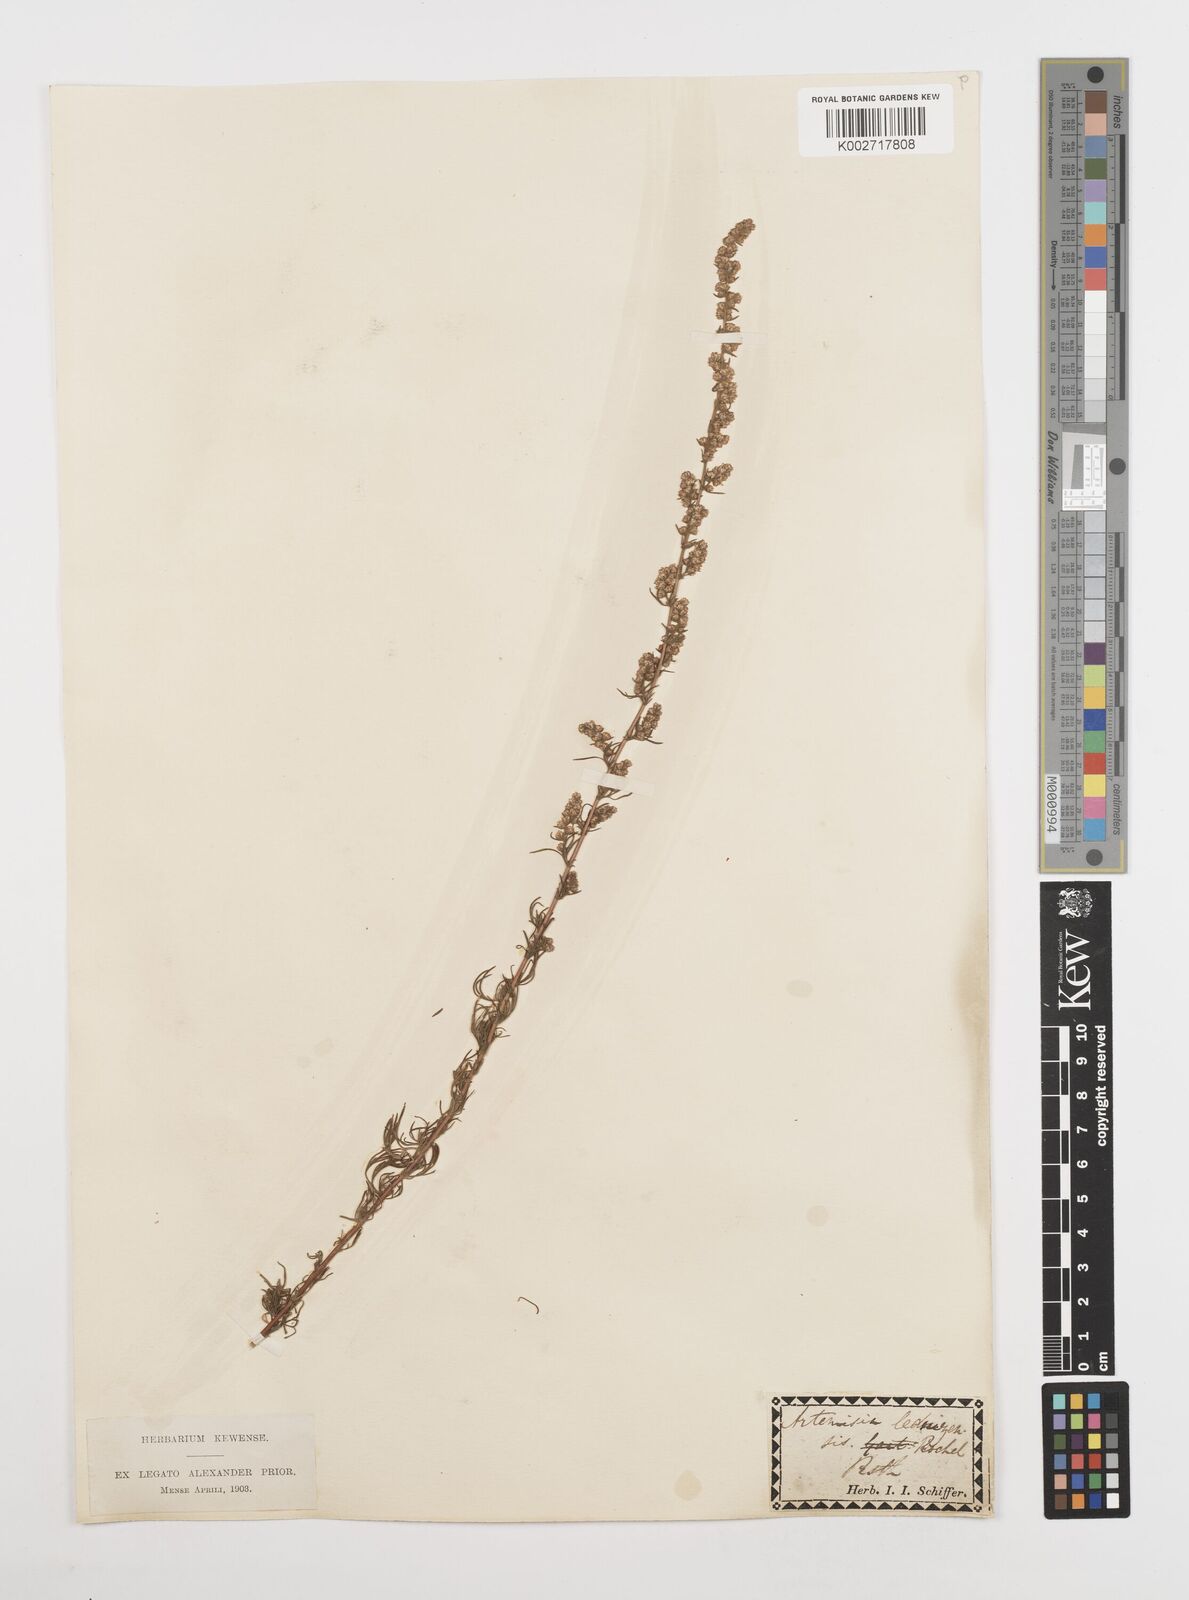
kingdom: Plantae
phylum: Tracheophyta
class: Magnoliopsida
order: Asterales
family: Asteraceae
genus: Artemisia
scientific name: Artemisia campestris
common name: Field wormwood
